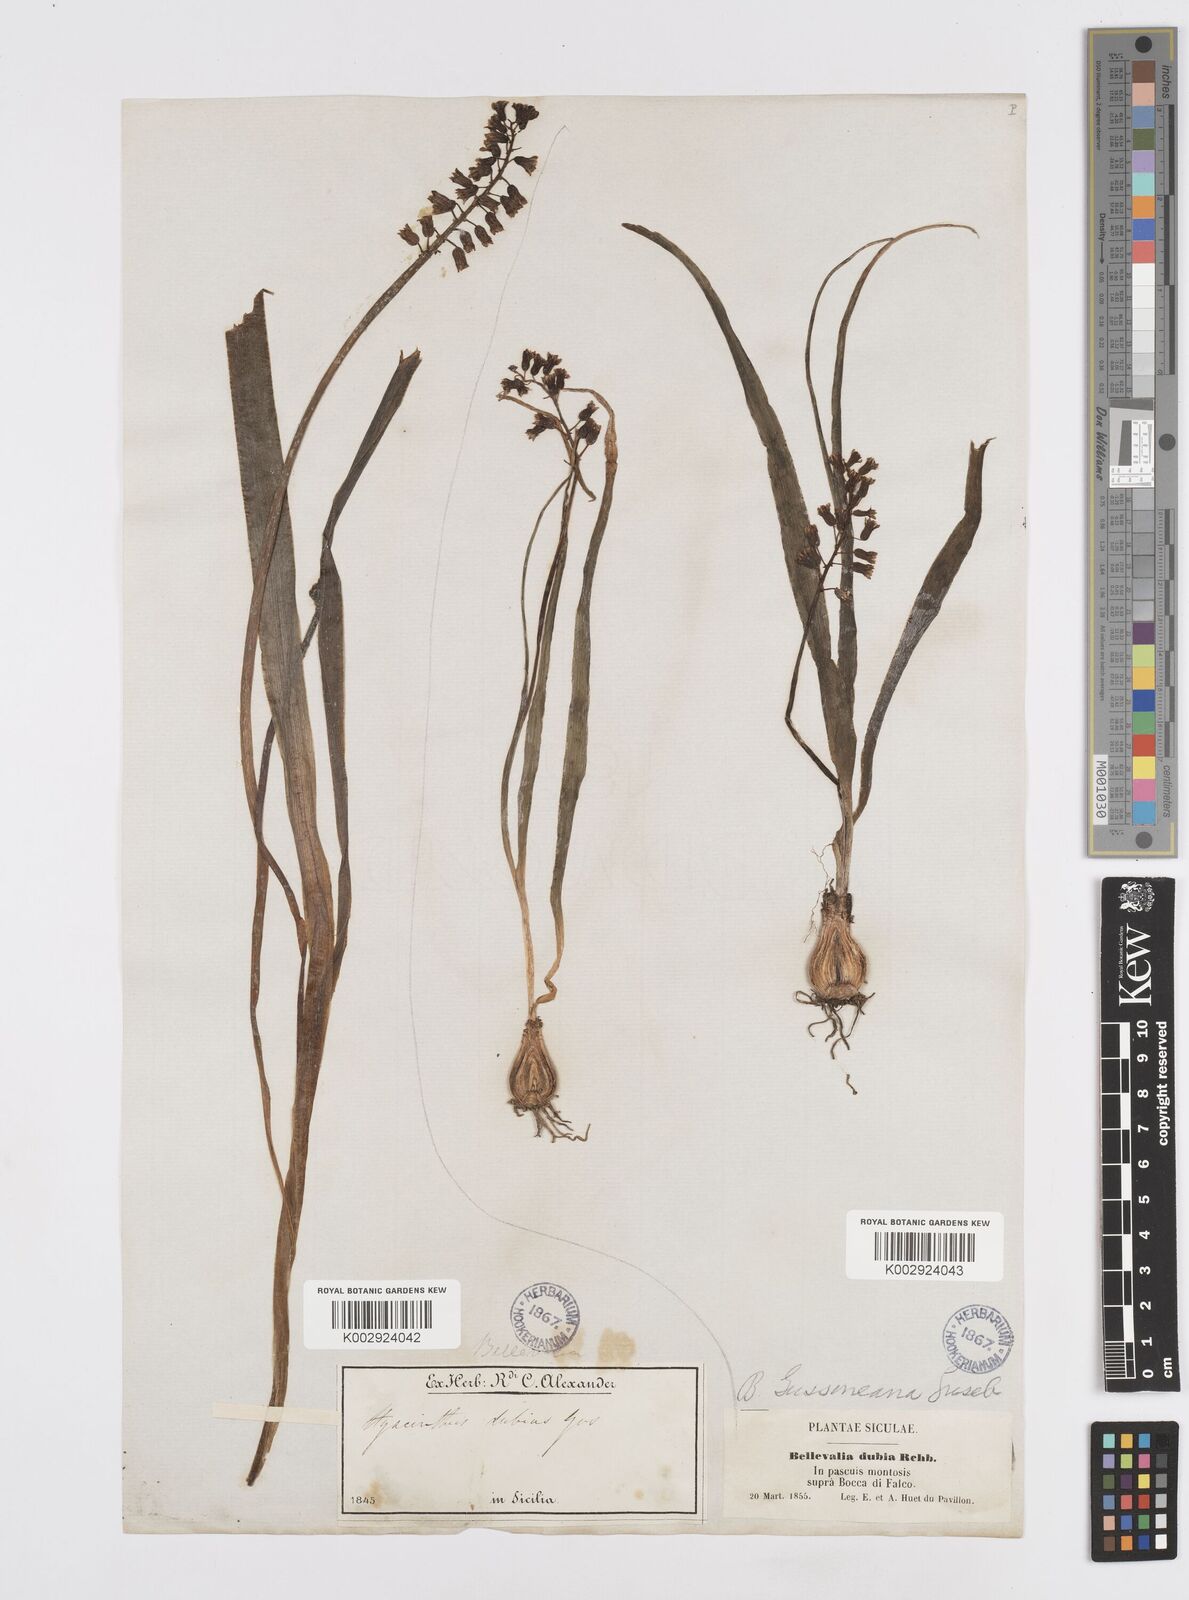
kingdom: Plantae
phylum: Tracheophyta
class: Liliopsida
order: Asparagales
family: Asparagaceae
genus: Bellevalia
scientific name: Bellevalia dubia
